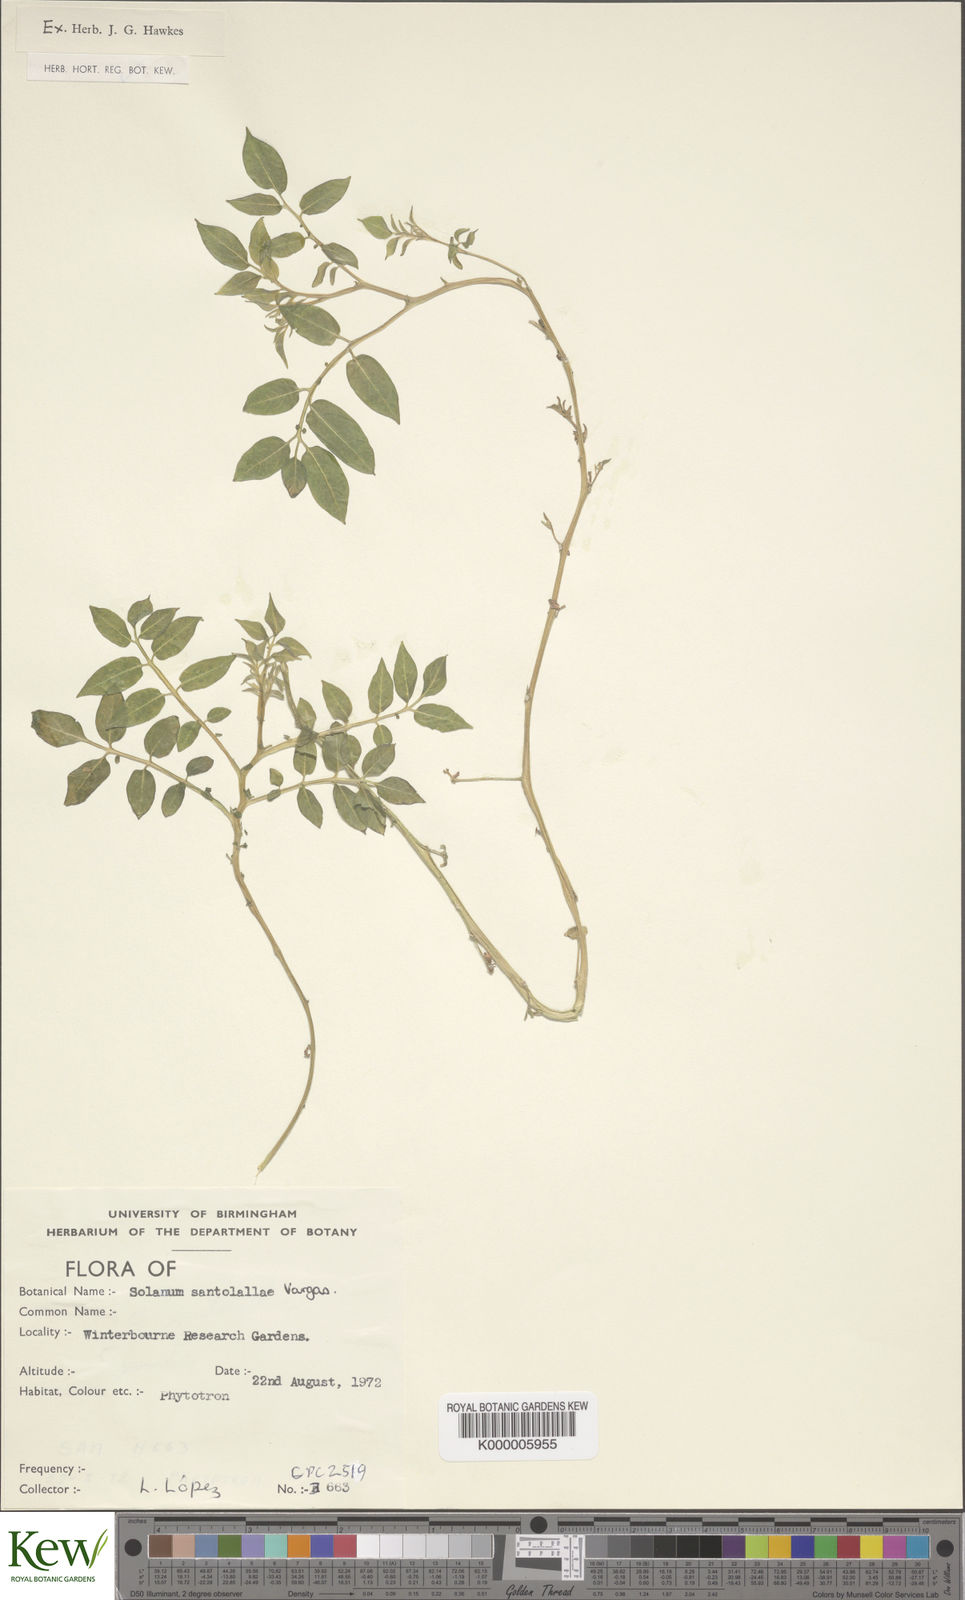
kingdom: Plantae
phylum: Tracheophyta
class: Magnoliopsida
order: Solanales
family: Solanaceae
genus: Solanum
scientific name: Solanum laxissimum
